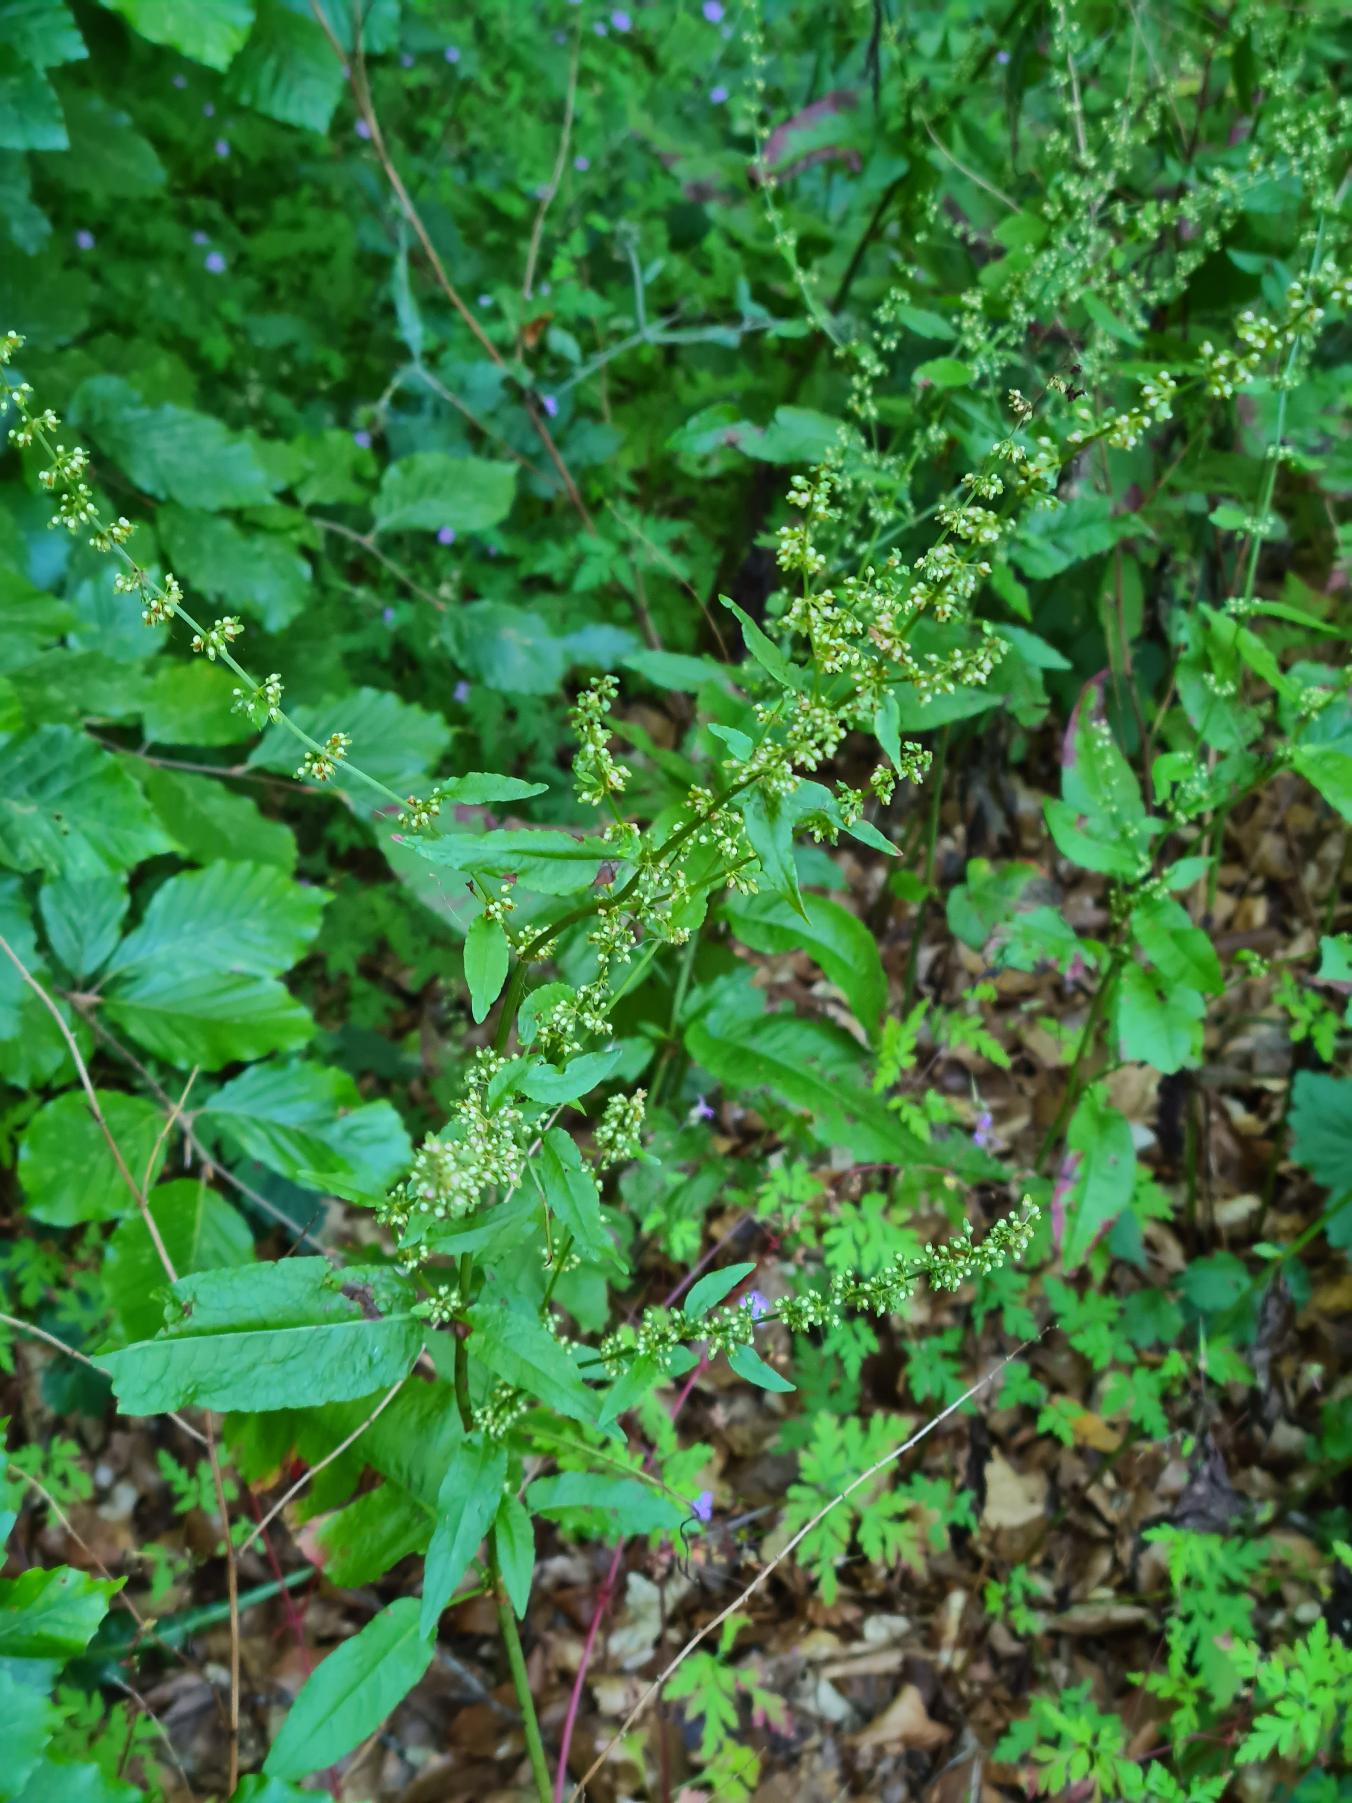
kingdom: Plantae
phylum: Tracheophyta
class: Magnoliopsida
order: Caryophyllales
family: Polygonaceae
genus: Rumex
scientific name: Rumex conglomeratus
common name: Nøgle-skræppe
